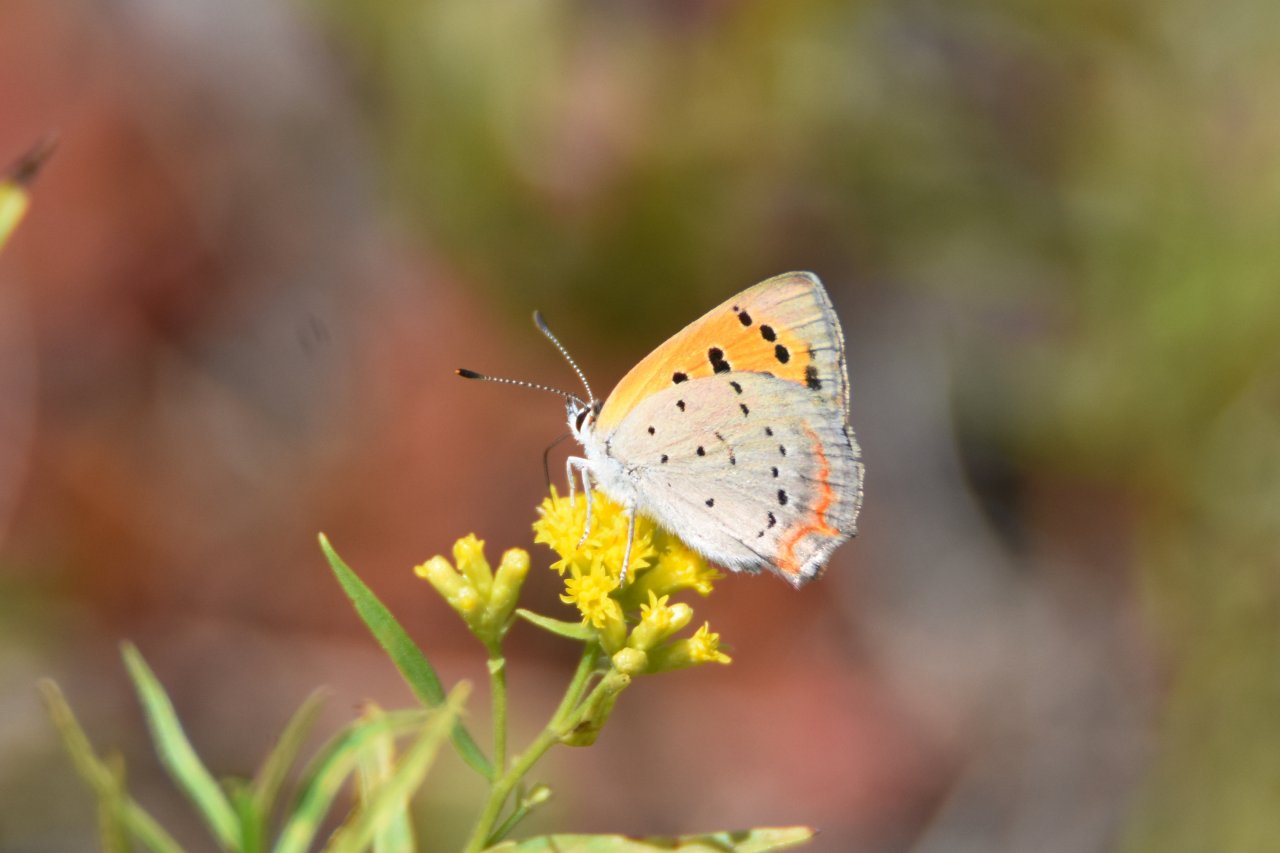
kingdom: Animalia
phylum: Arthropoda
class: Insecta
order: Lepidoptera
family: Lycaenidae
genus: Lycaena
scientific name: Lycaena phlaeas
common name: American Copper
